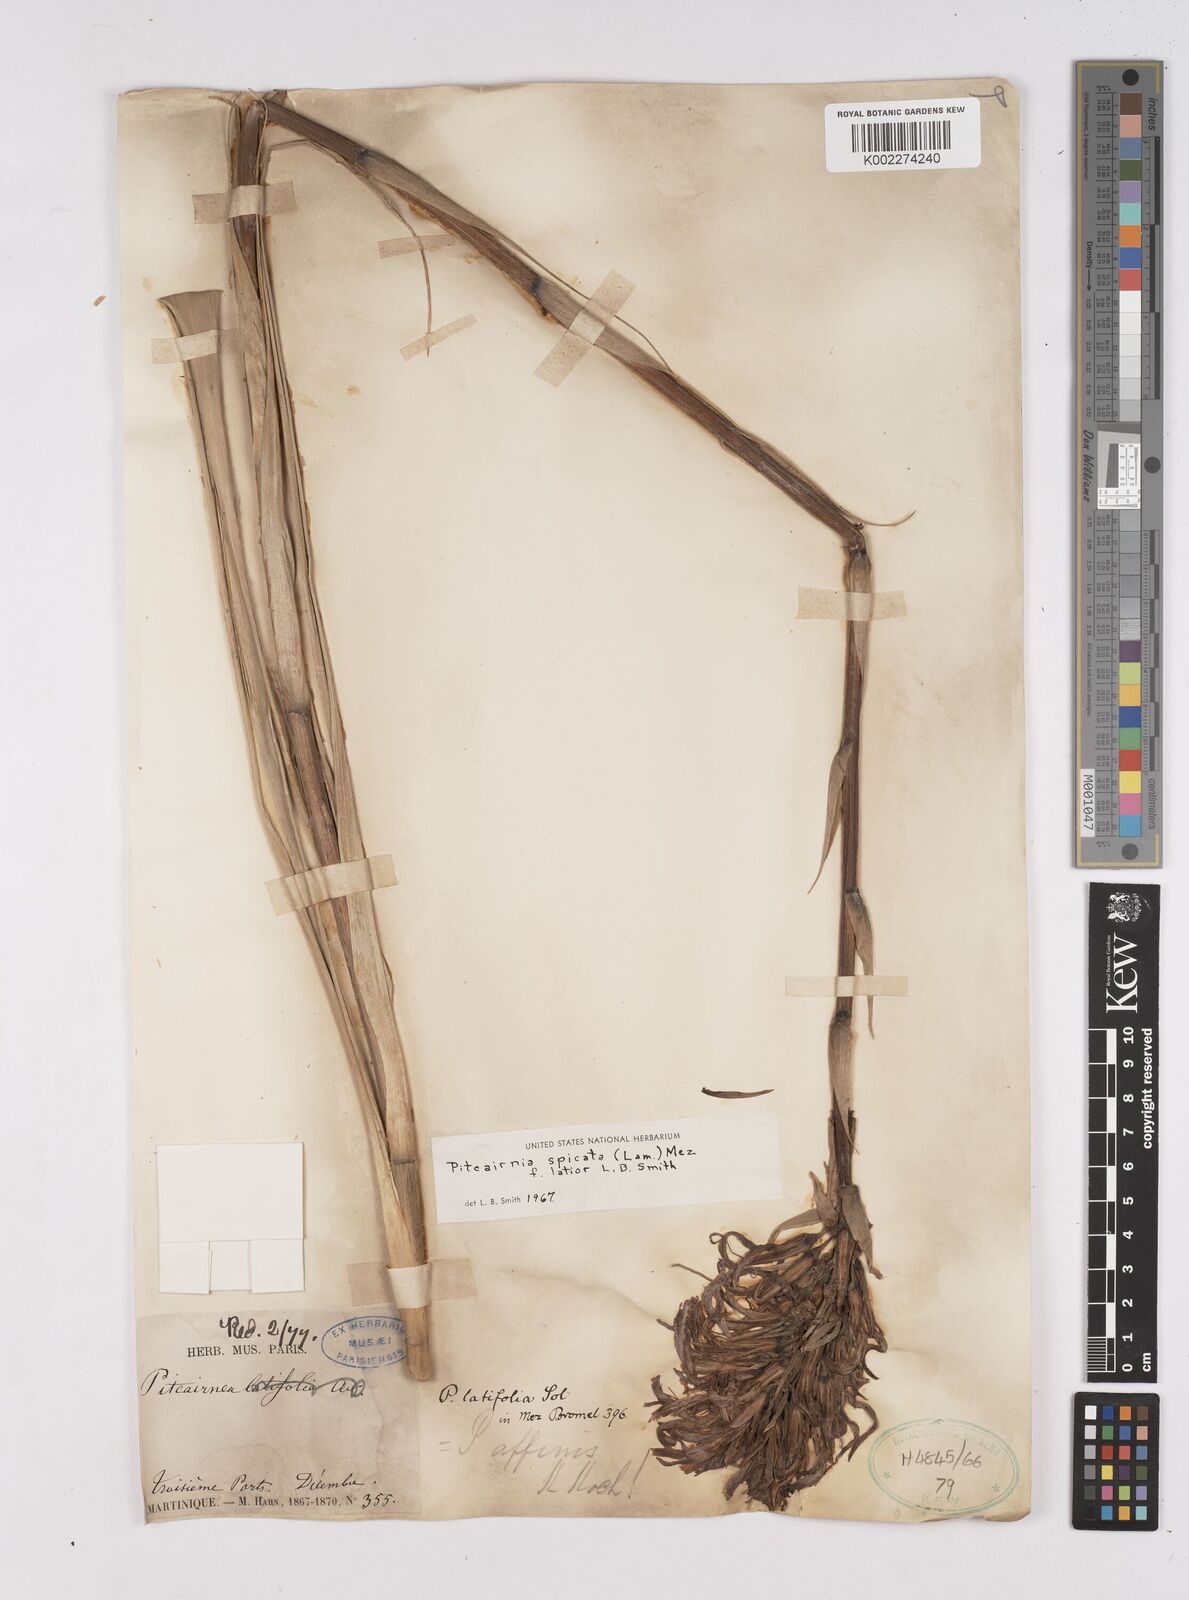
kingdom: Plantae
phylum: Tracheophyta
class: Liliopsida
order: Poales
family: Bromeliaceae
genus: Pitcairnia
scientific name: Pitcairnia spicata
